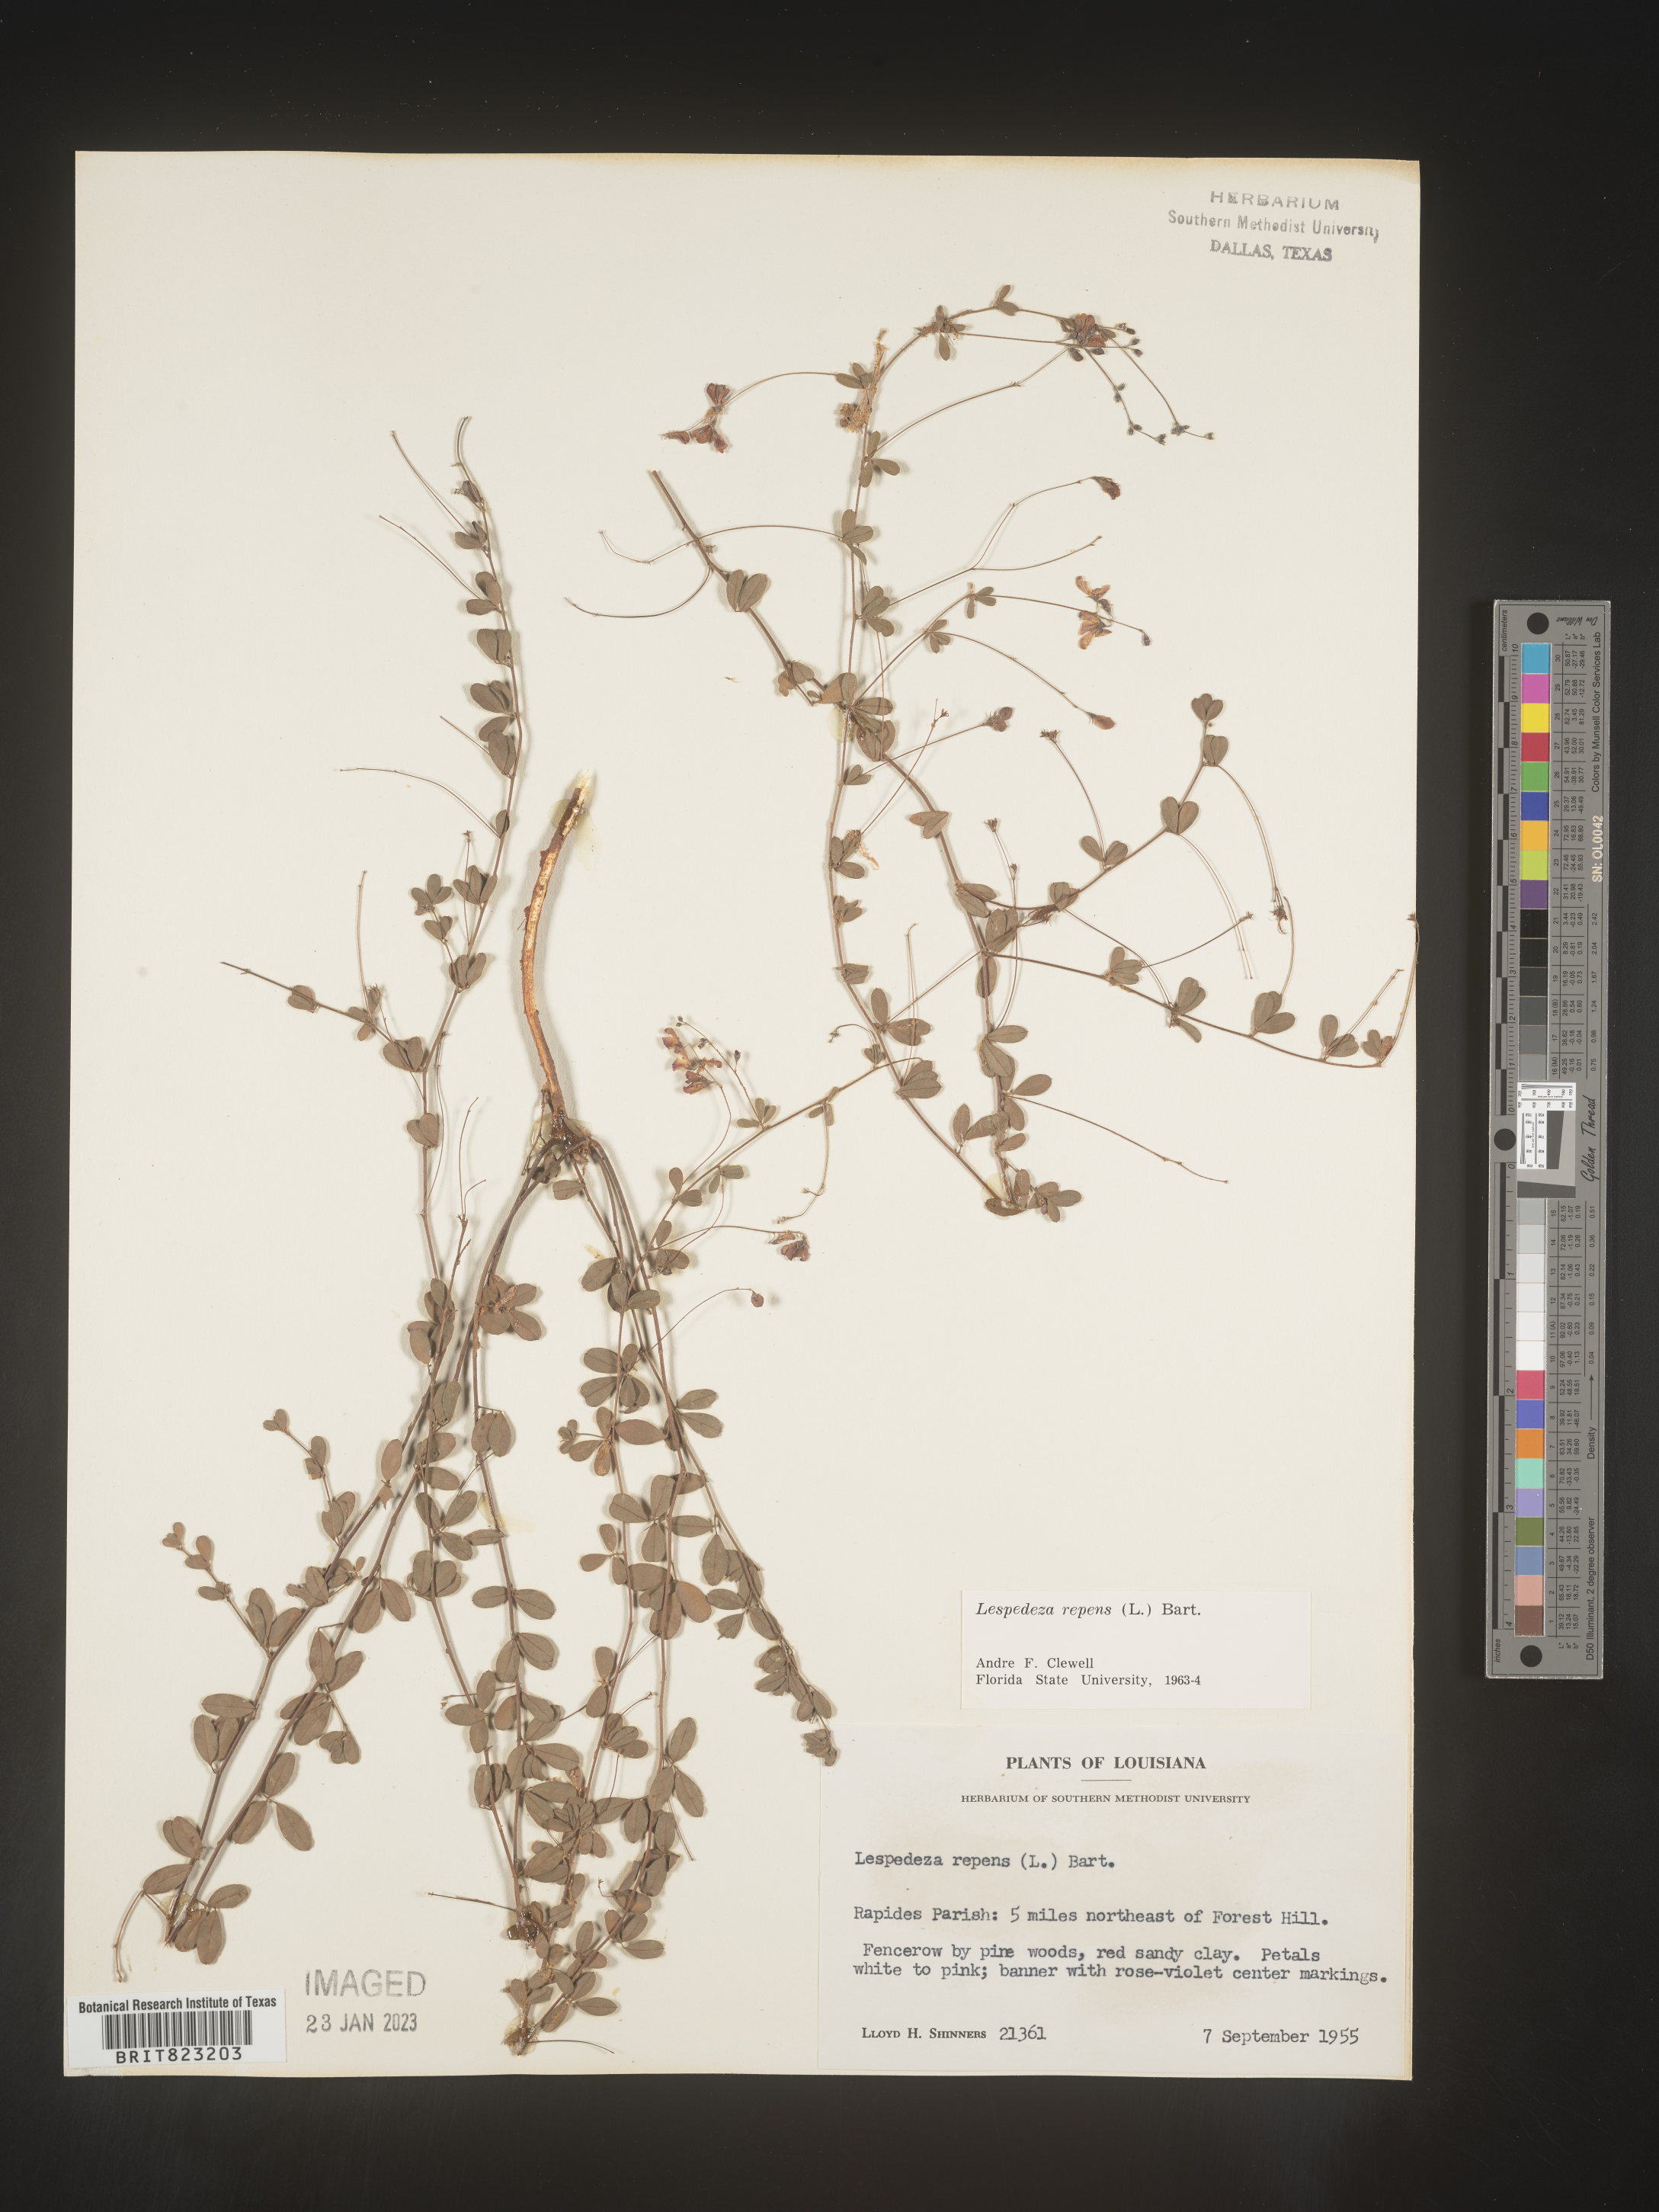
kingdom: Plantae
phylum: Tracheophyta
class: Magnoliopsida
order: Fabales
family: Fabaceae
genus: Lespedeza
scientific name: Lespedeza repens
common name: Creeping bush-clover
